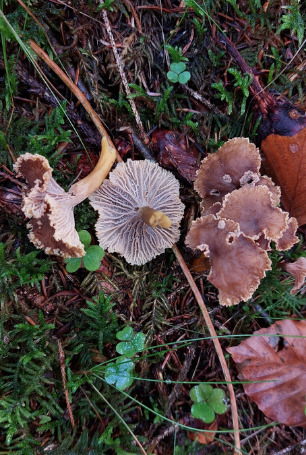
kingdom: Fungi
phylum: Basidiomycota
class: Agaricomycetes
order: Cantharellales
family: Hydnaceae
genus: Craterellus
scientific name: Craterellus tubaeformis
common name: Tragt-kantarel
